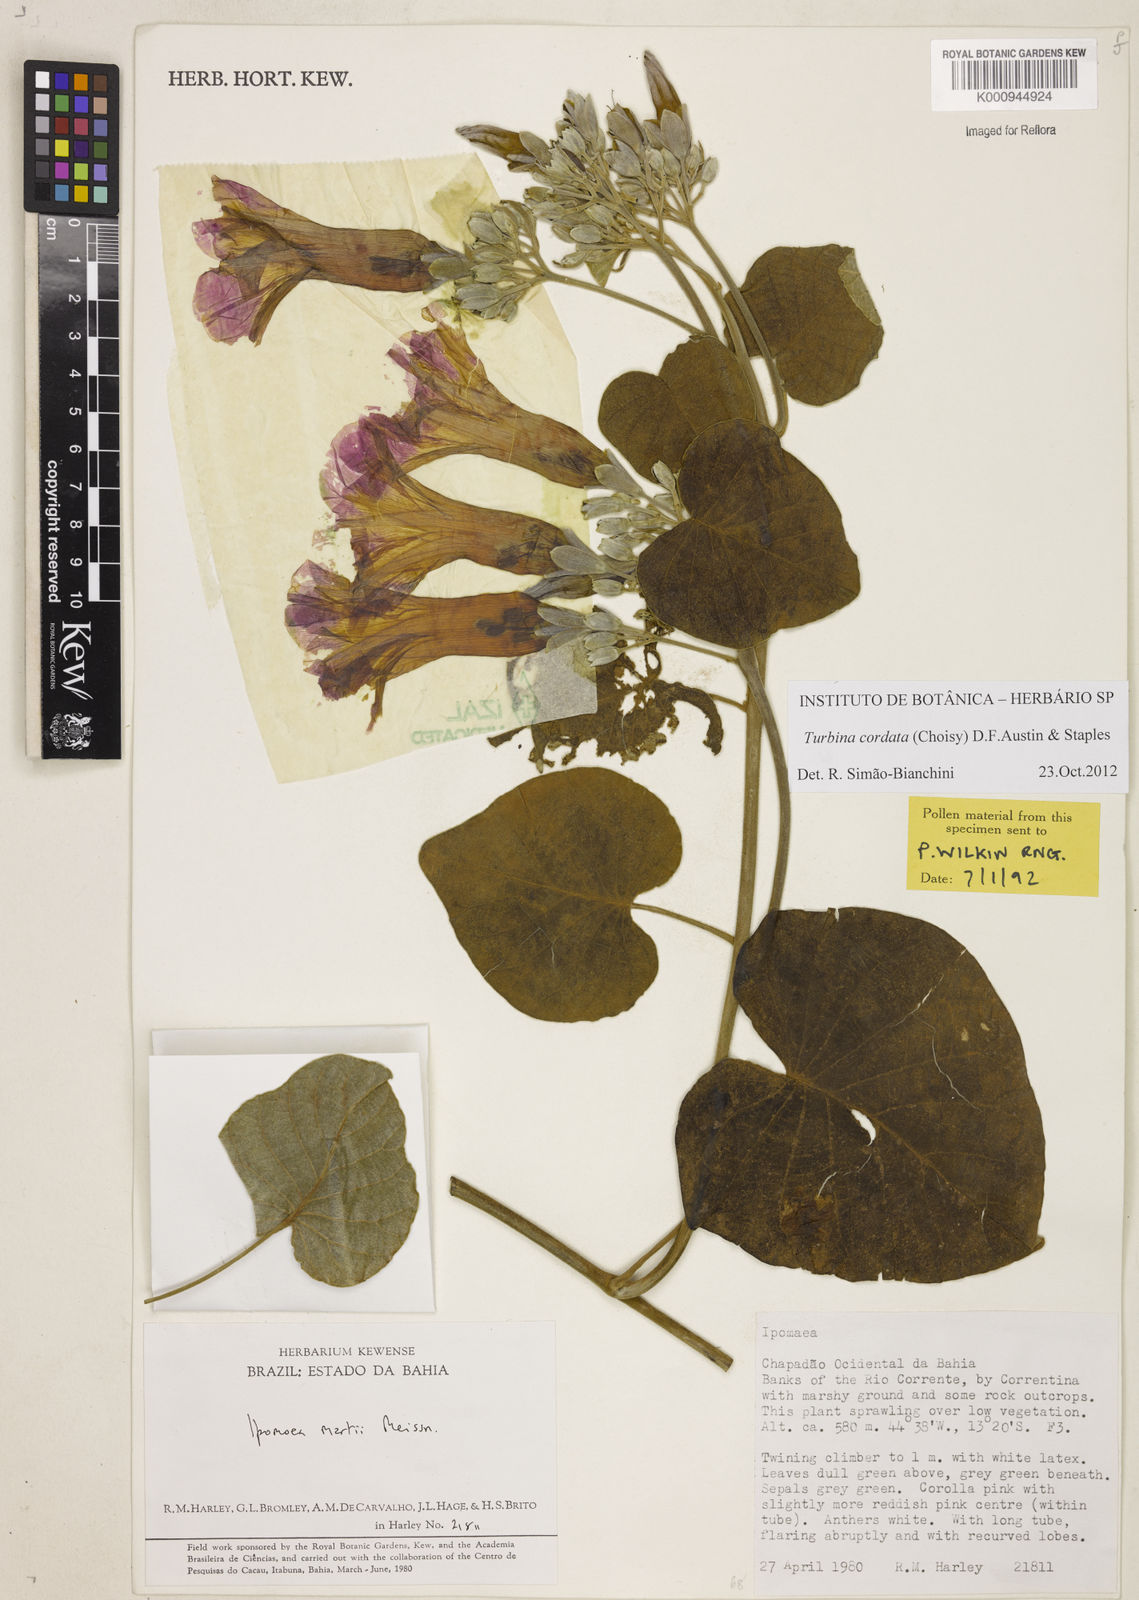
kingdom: Animalia
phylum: Mollusca
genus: Turbina
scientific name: Turbina
